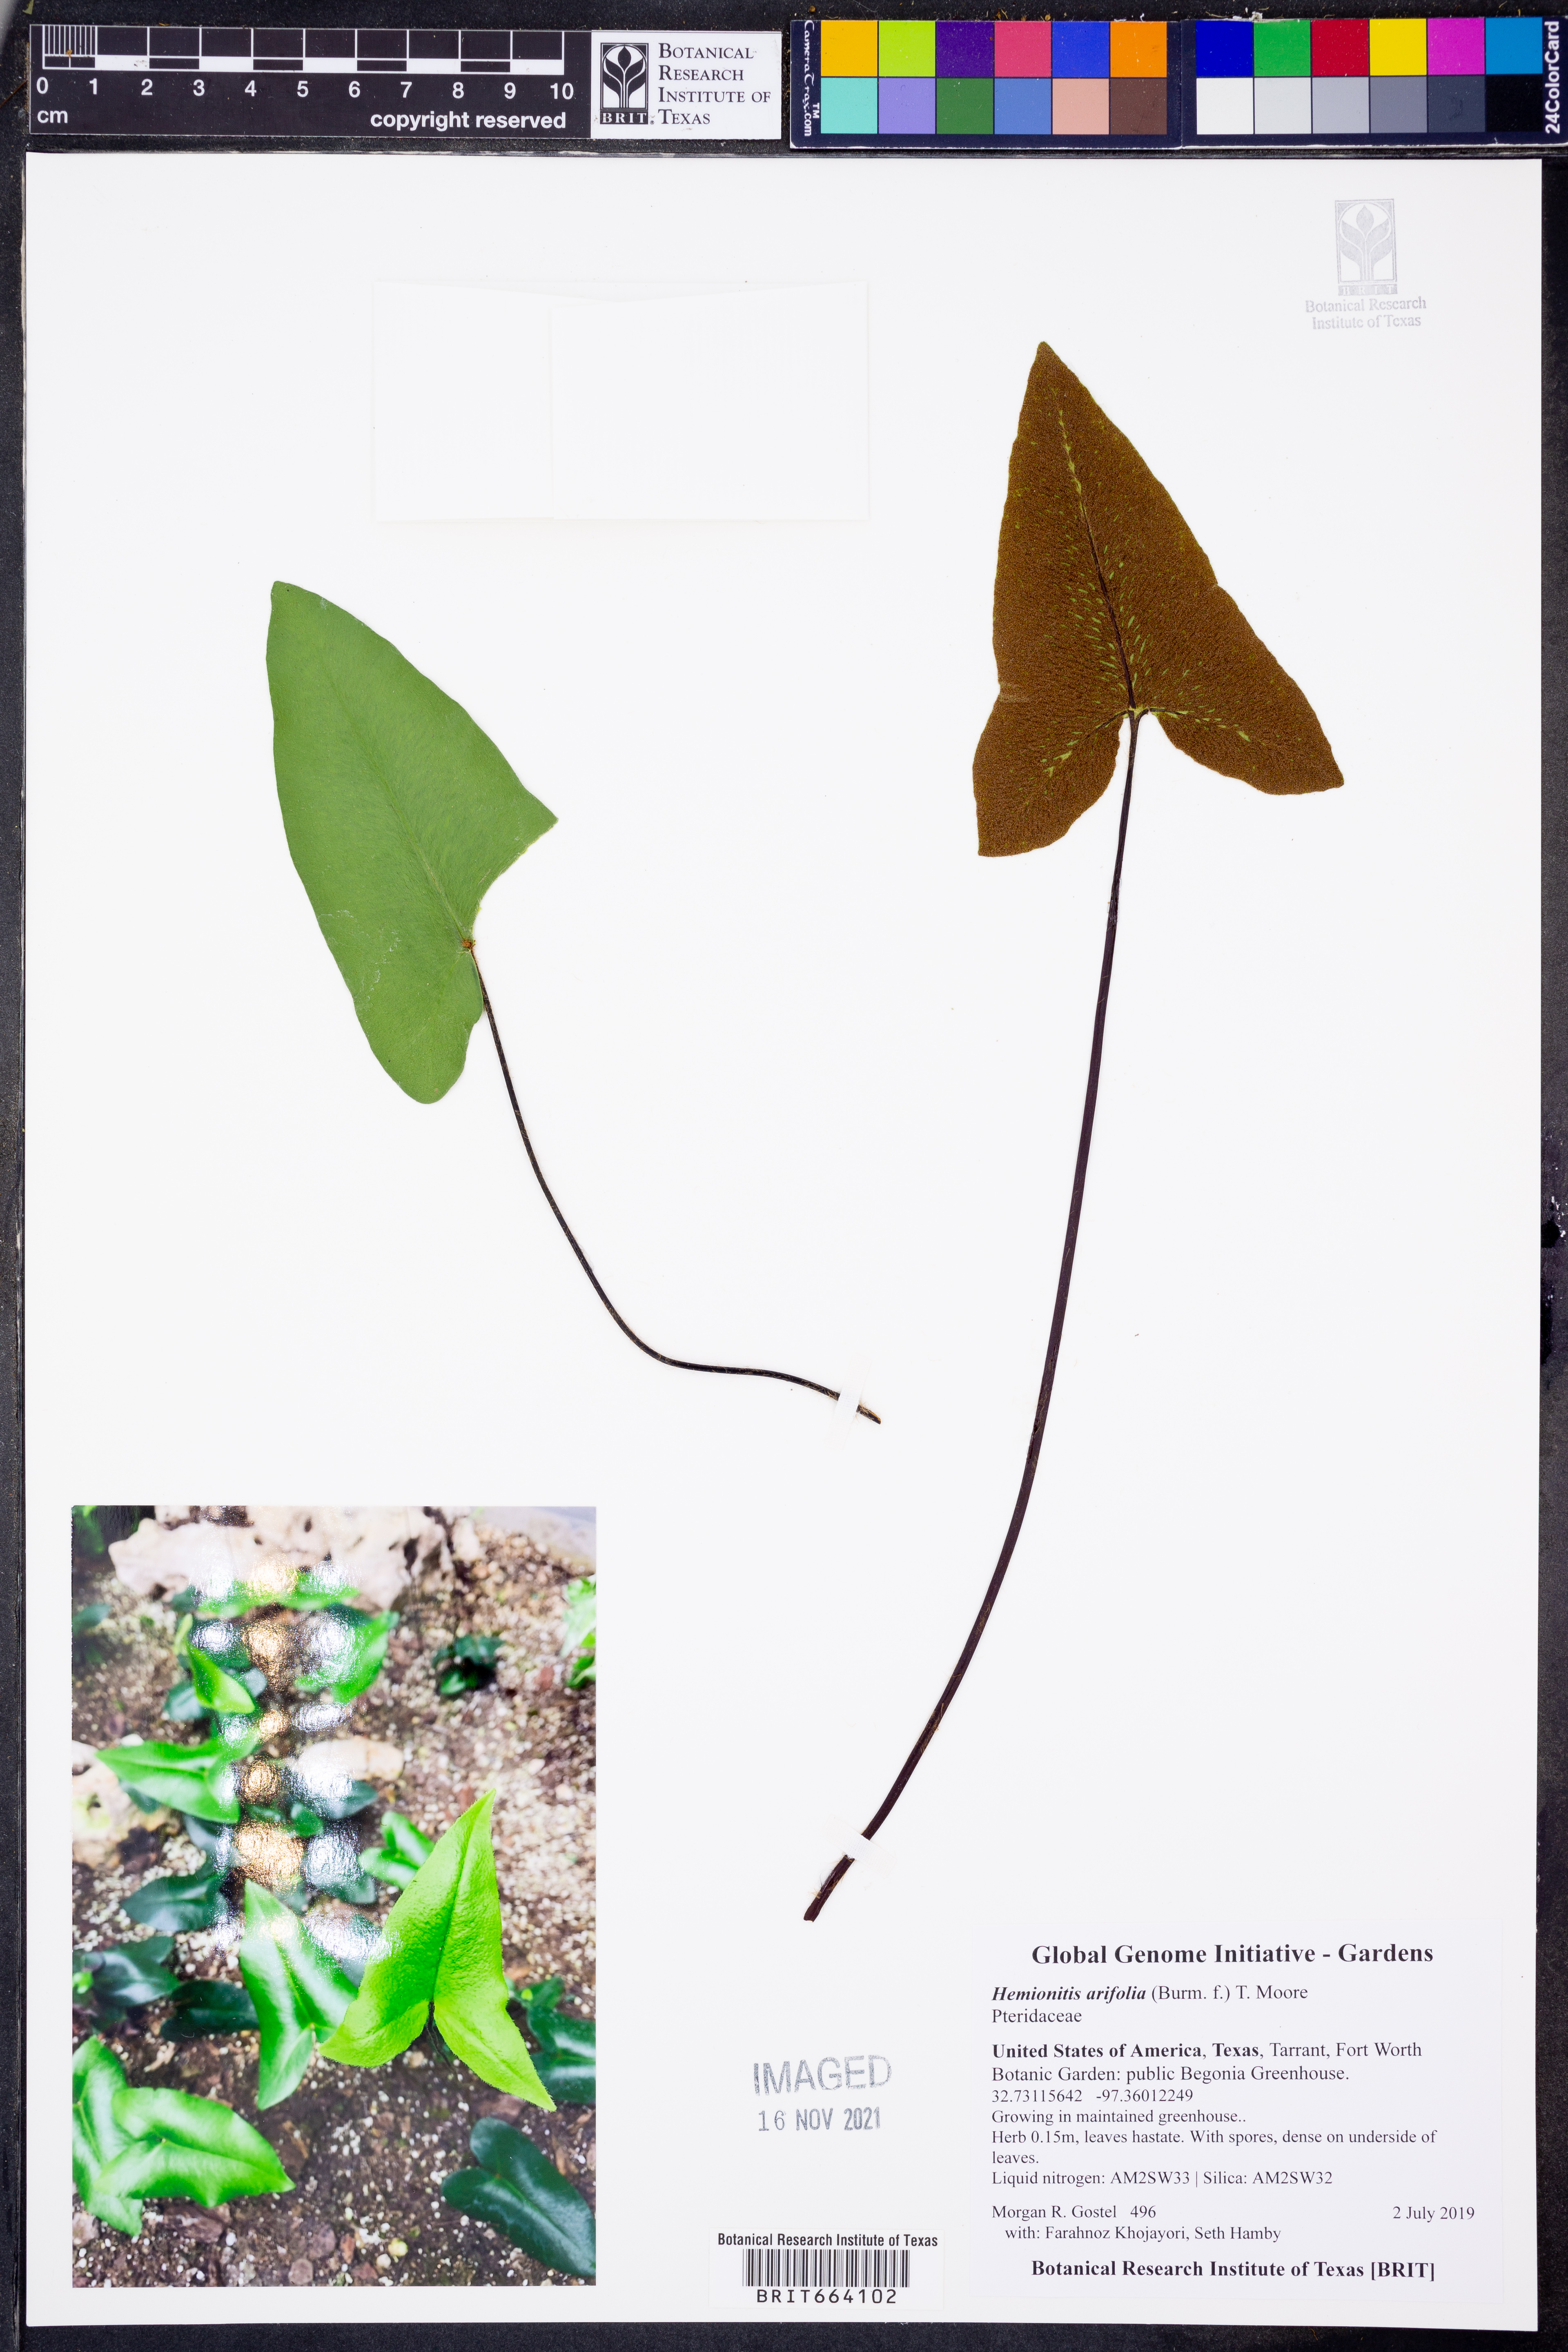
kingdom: Plantae
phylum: Tracheophyta
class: Polypodiopsida
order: Polypodiales
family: Pteridaceae
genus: Acrostichum
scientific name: Acrostichum aureum
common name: Leather fern
